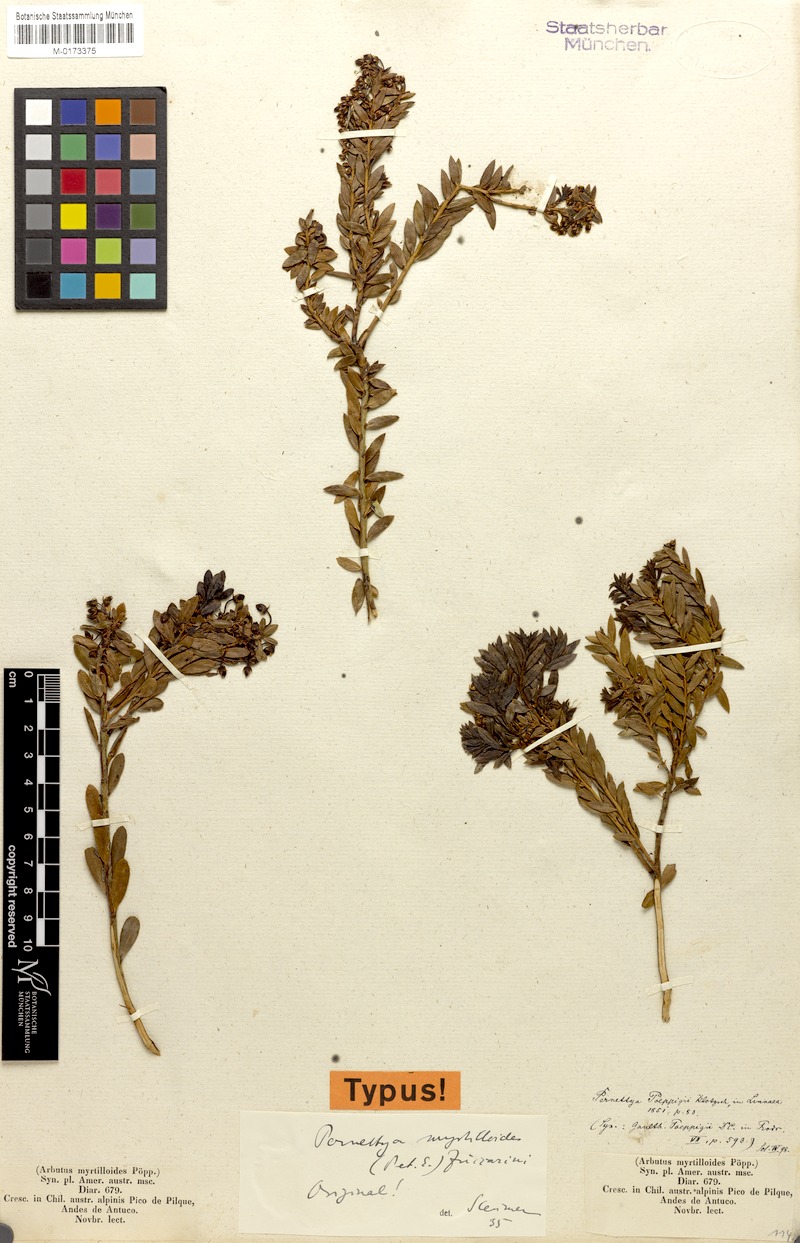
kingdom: Plantae
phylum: Tracheophyta
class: Magnoliopsida
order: Ericales
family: Ericaceae
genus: Gaultheria
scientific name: Gaultheria poeppigii
